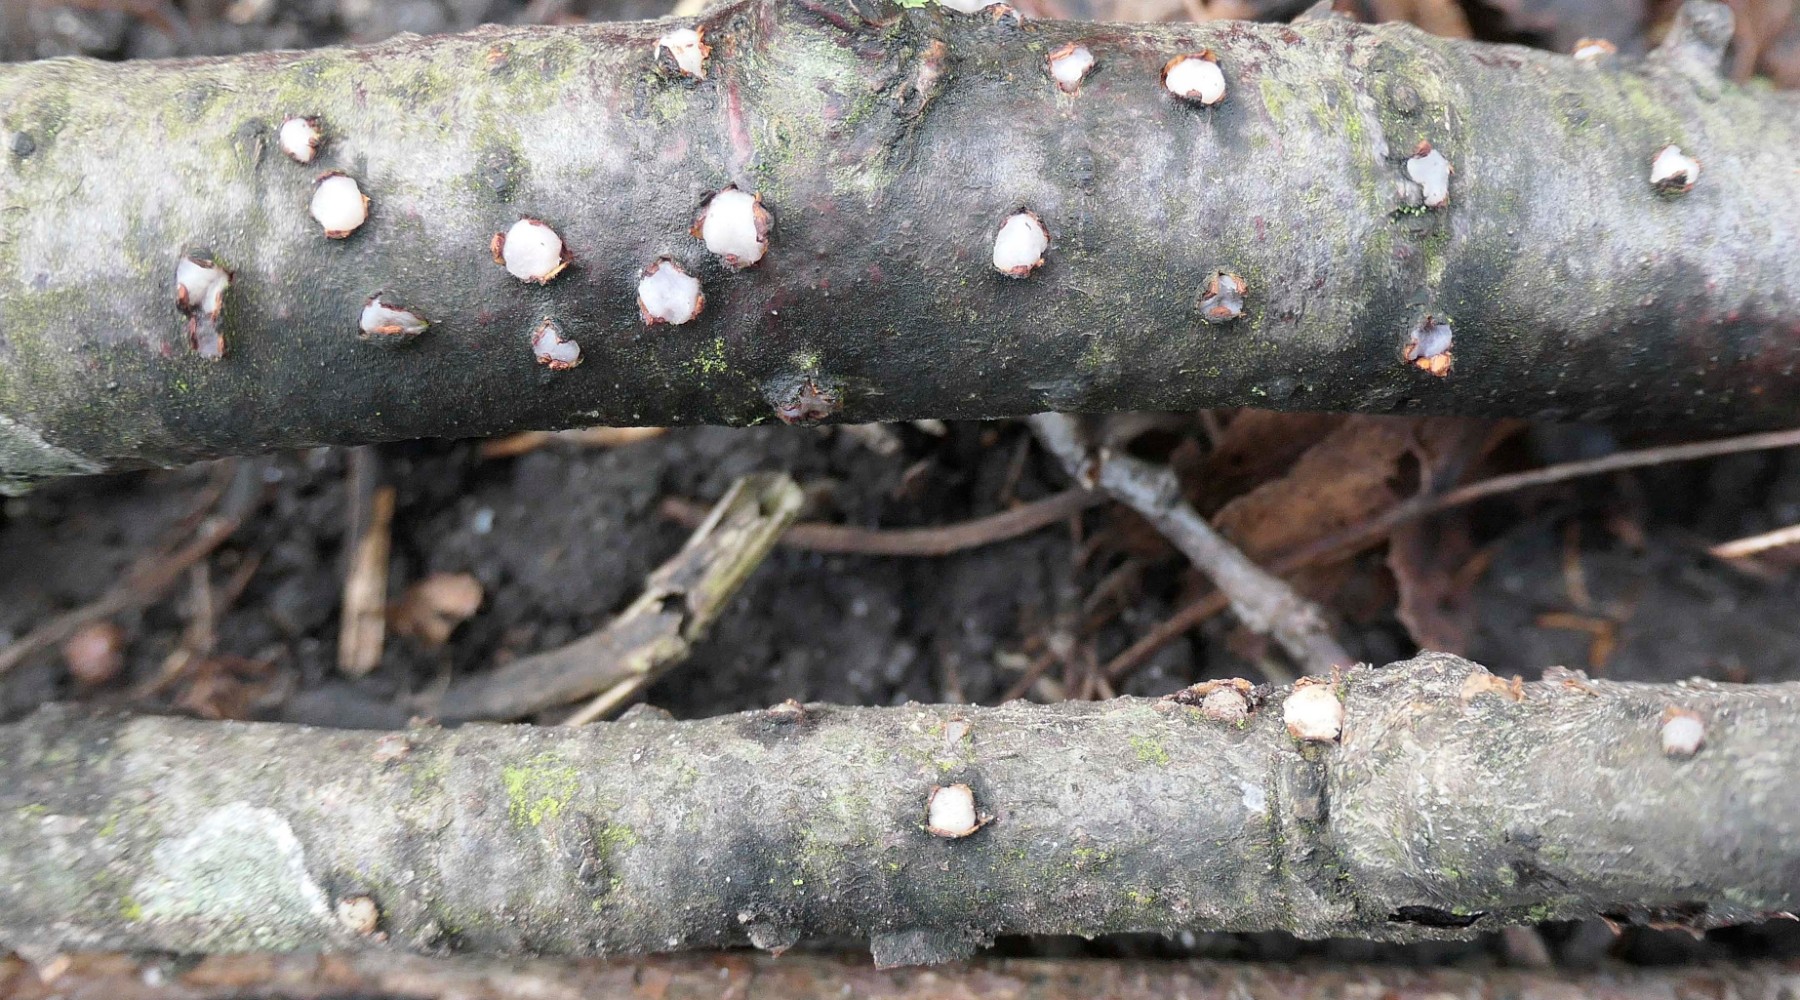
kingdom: Fungi
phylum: Basidiomycota
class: Pucciniomycetes
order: Platygloeales
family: Platygloeaceae
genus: Platygloea
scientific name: Platygloea disciformis
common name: linde-slimklat
